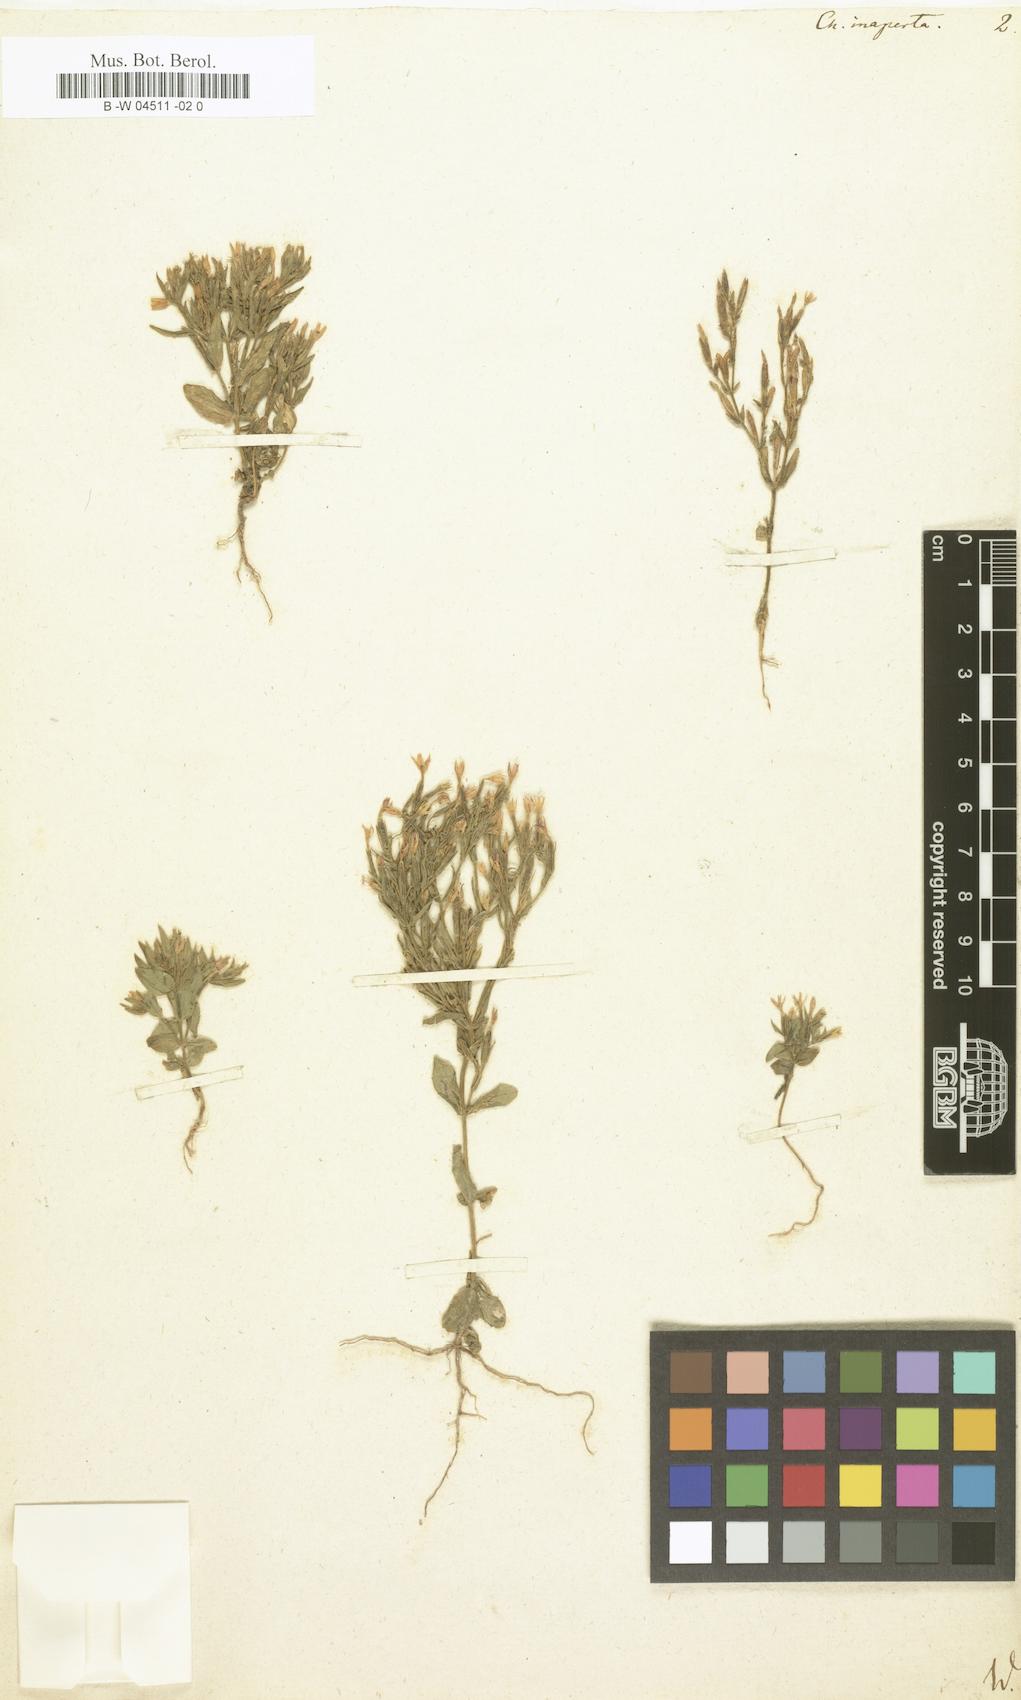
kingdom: Plantae
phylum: Tracheophyta
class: Magnoliopsida
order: Gentianales
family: Gentianaceae
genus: Centaurium
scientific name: Centaurium pulchellum
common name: Lesser centaury
